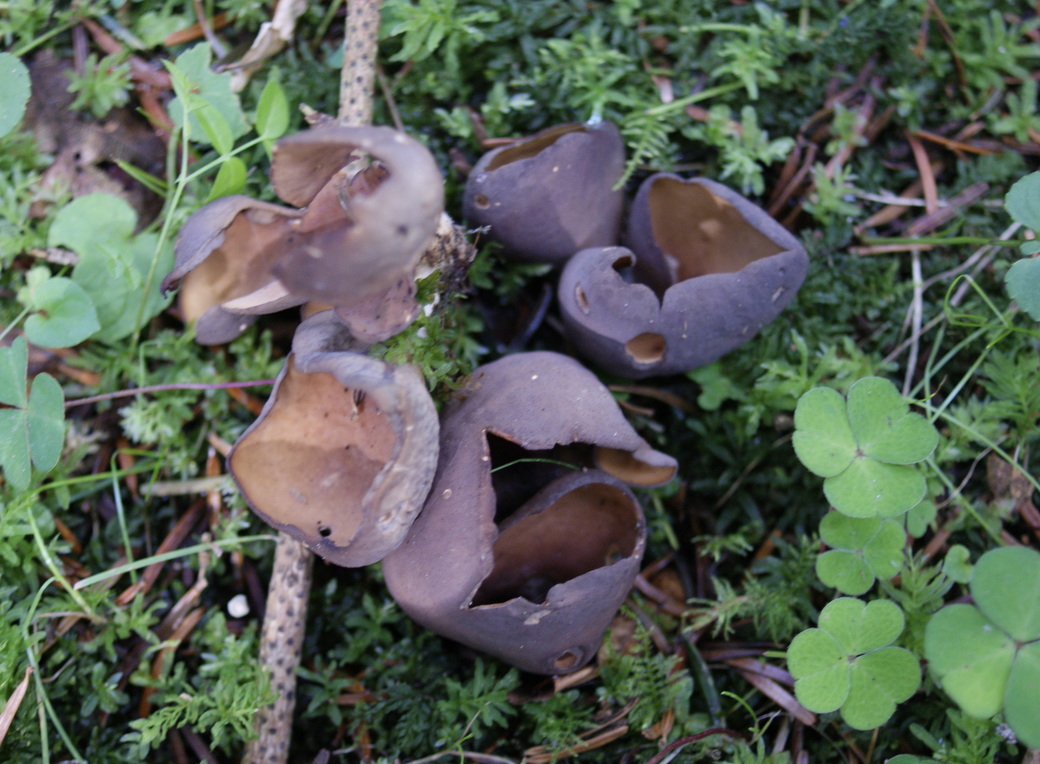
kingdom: Fungi
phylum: Ascomycota
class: Pezizomycetes
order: Pezizales
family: Otideaceae
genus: Otidea
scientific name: Otidea mirabilis
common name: prægtig ørebæger
